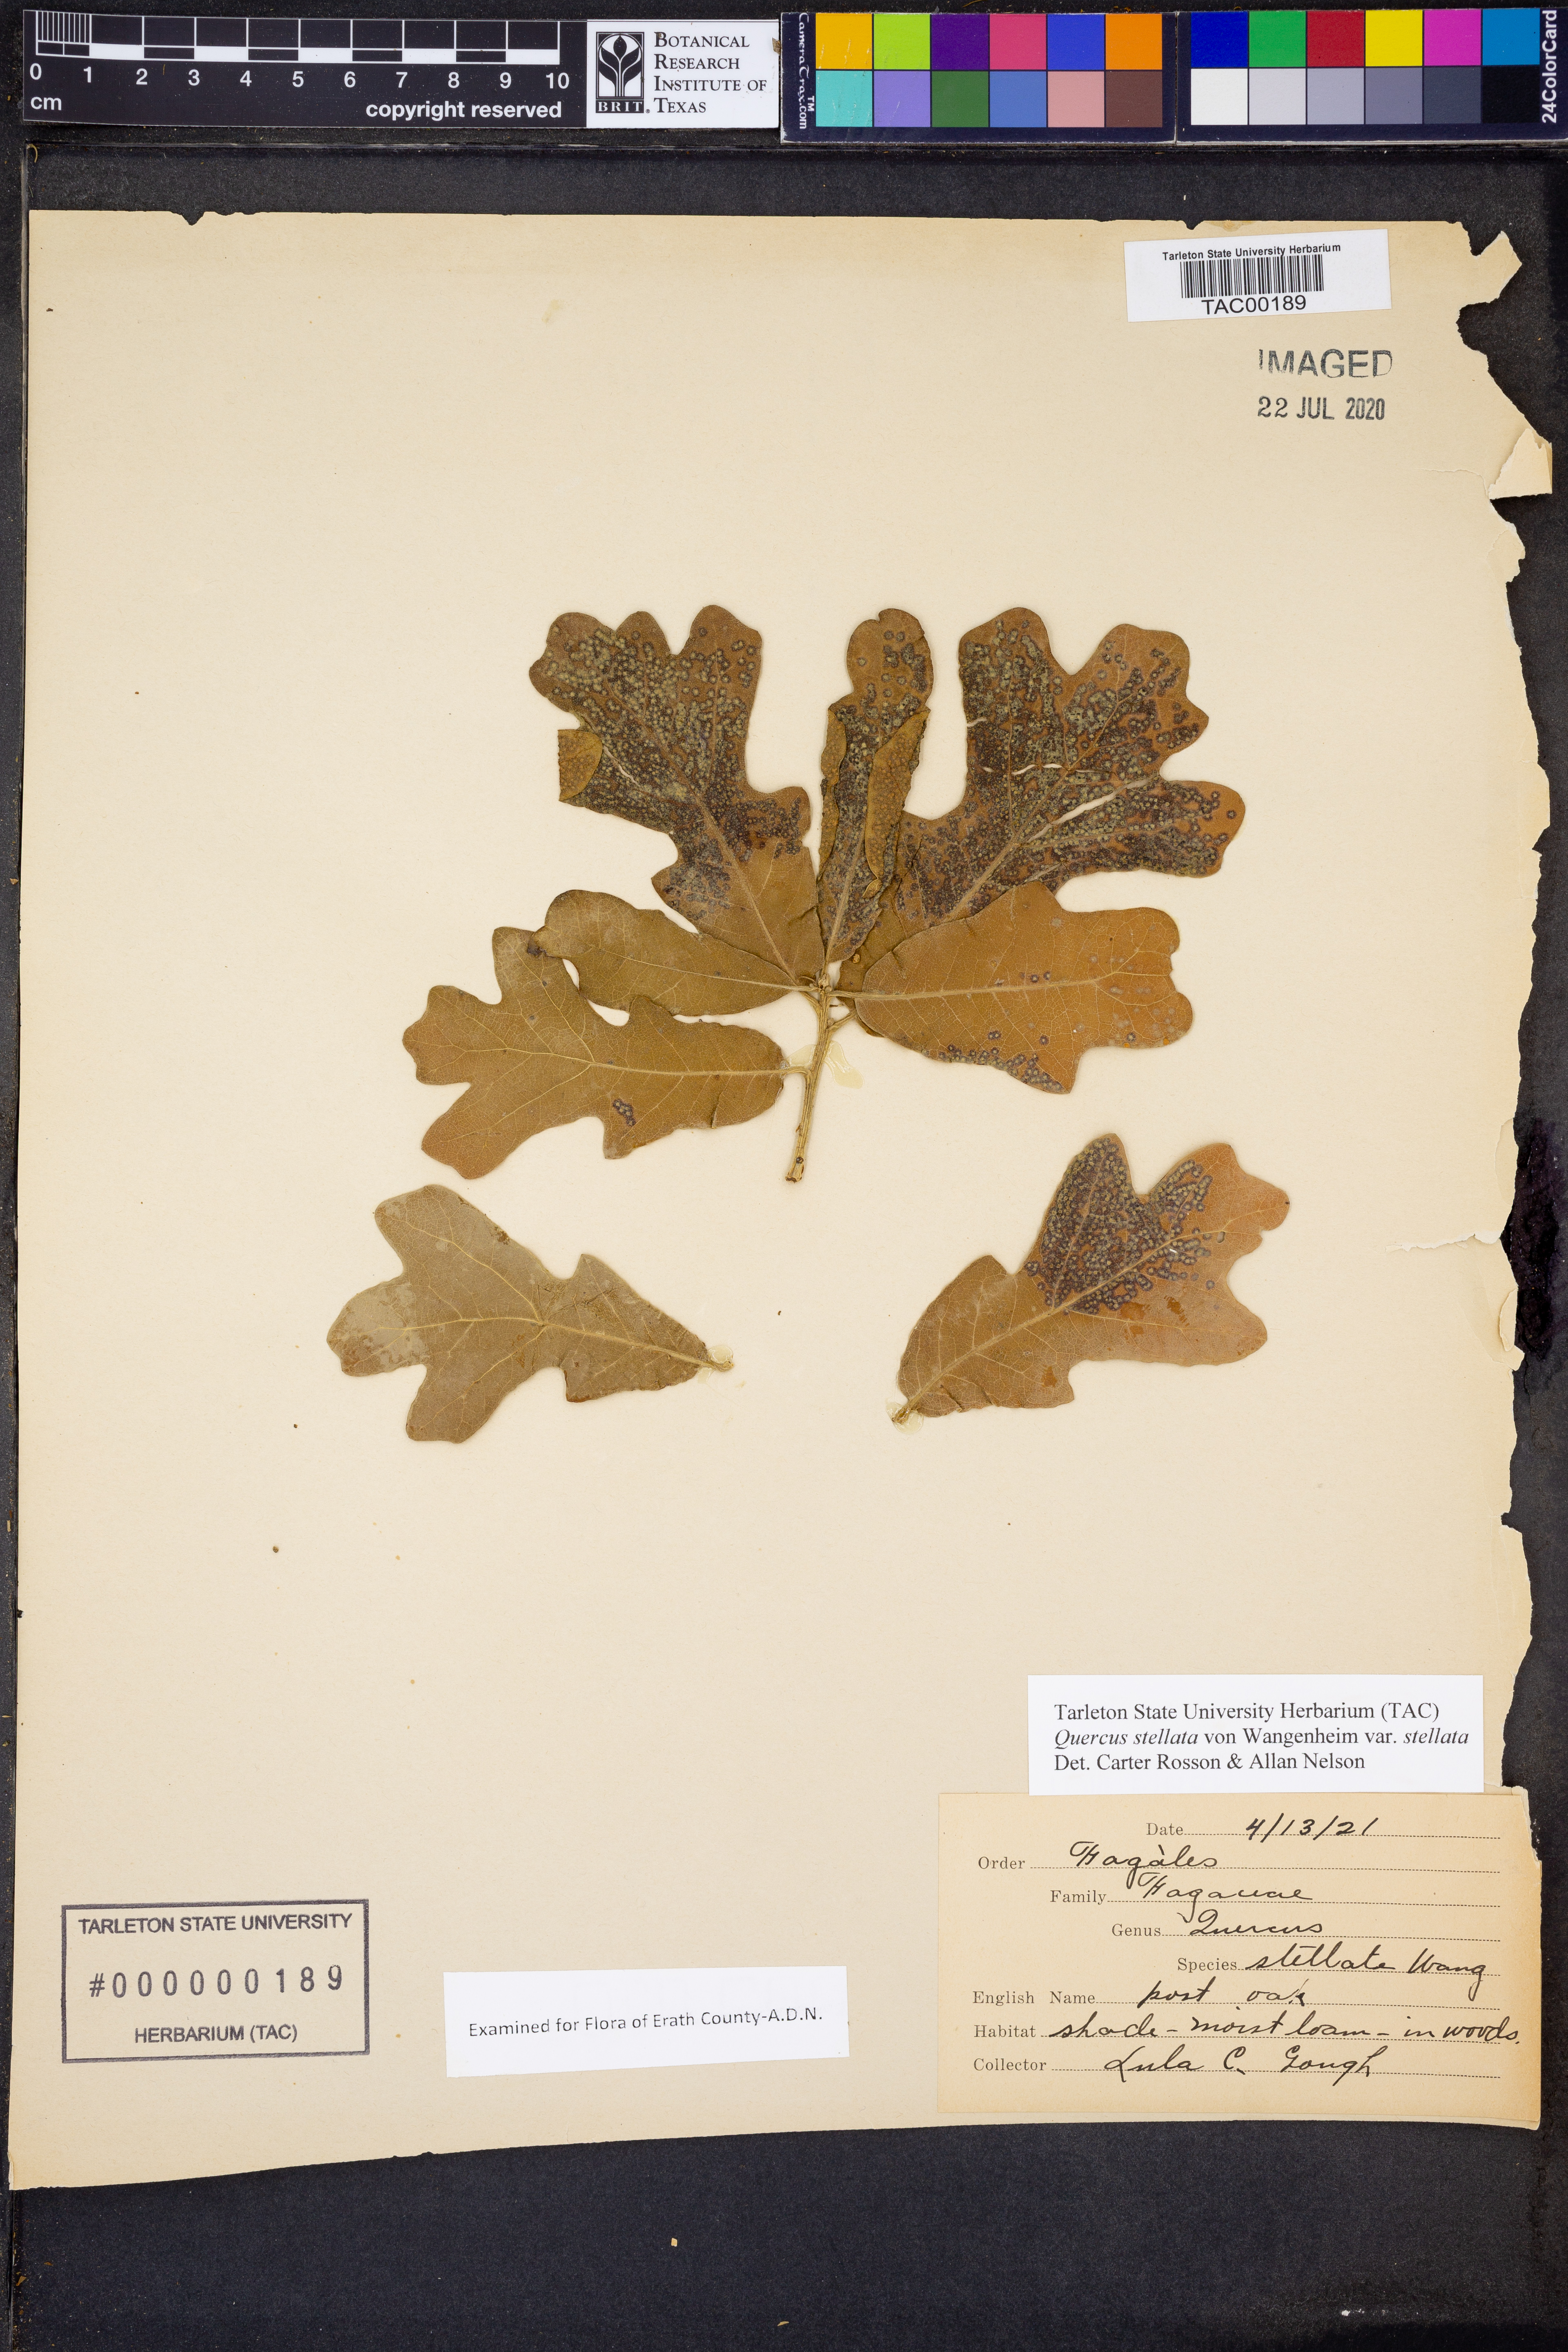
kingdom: Plantae
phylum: Tracheophyta
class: Magnoliopsida
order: Fagales
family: Fagaceae
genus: Quercus
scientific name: Quercus stellata
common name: Post oak
